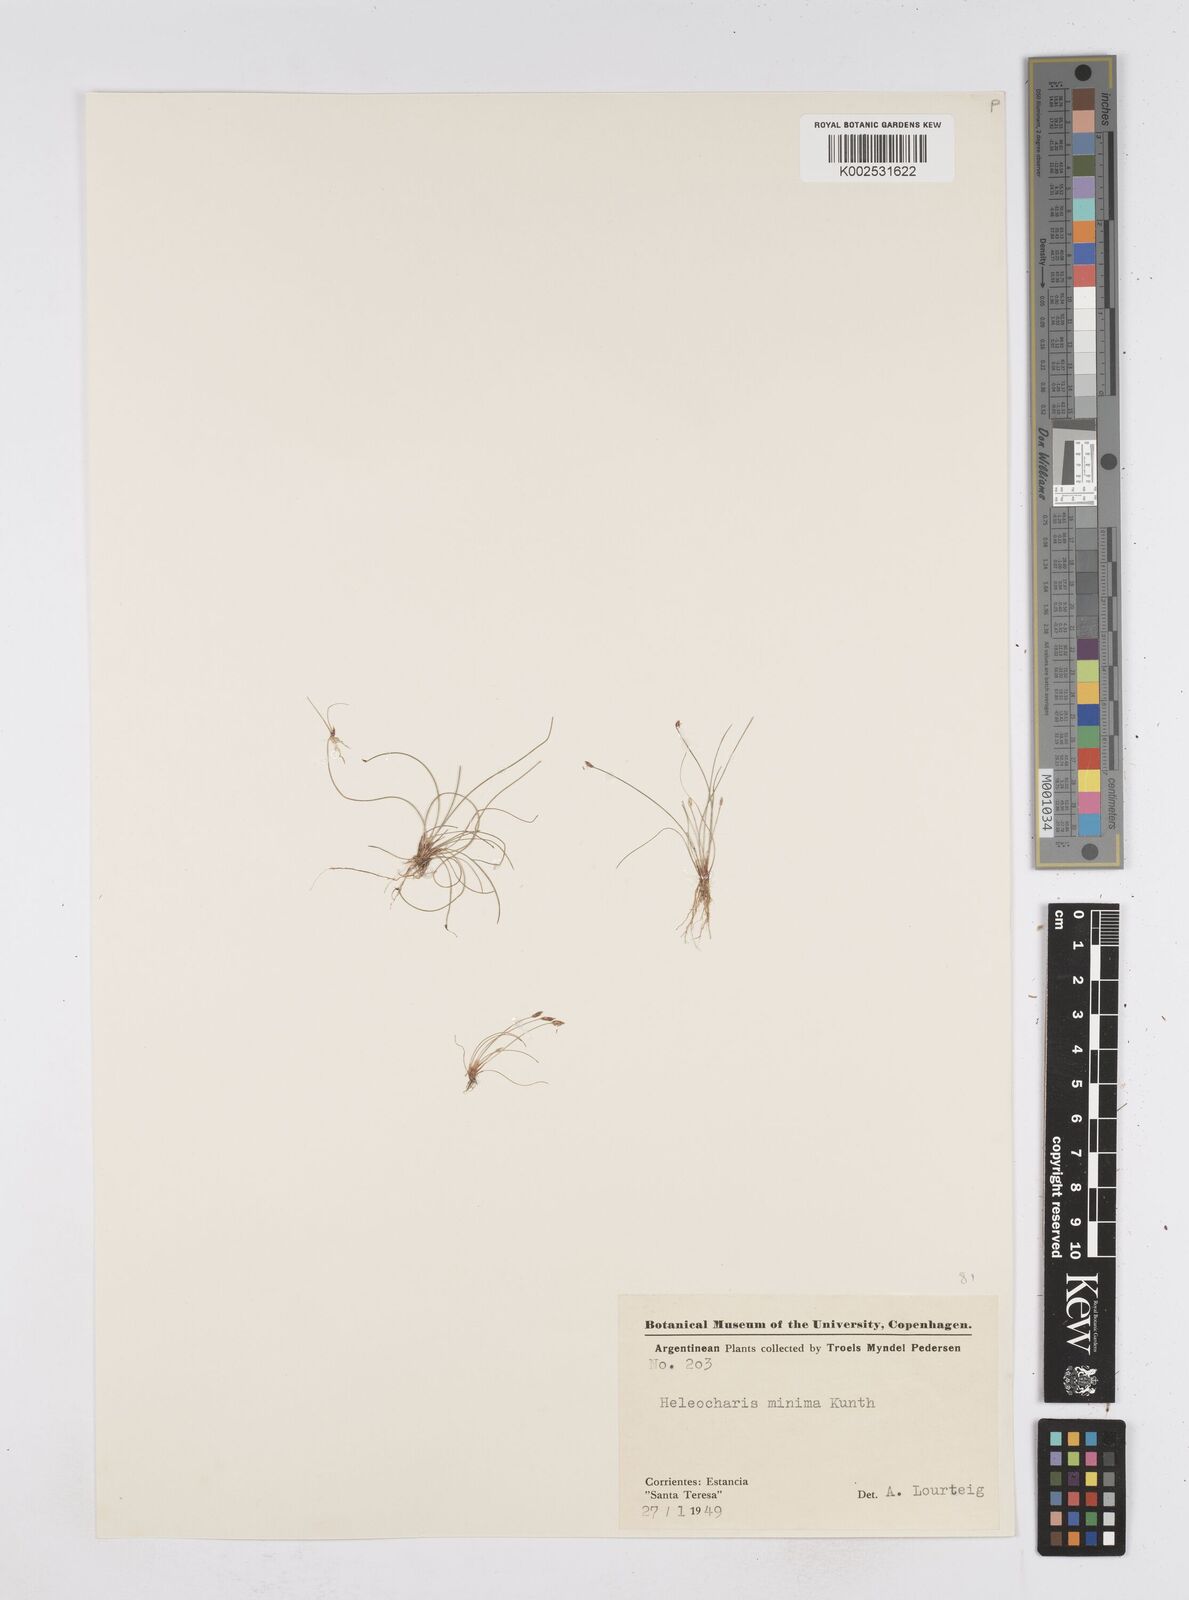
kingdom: Plantae
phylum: Tracheophyta
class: Liliopsida
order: Poales
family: Cyperaceae
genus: Eleocharis
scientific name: Eleocharis minima
